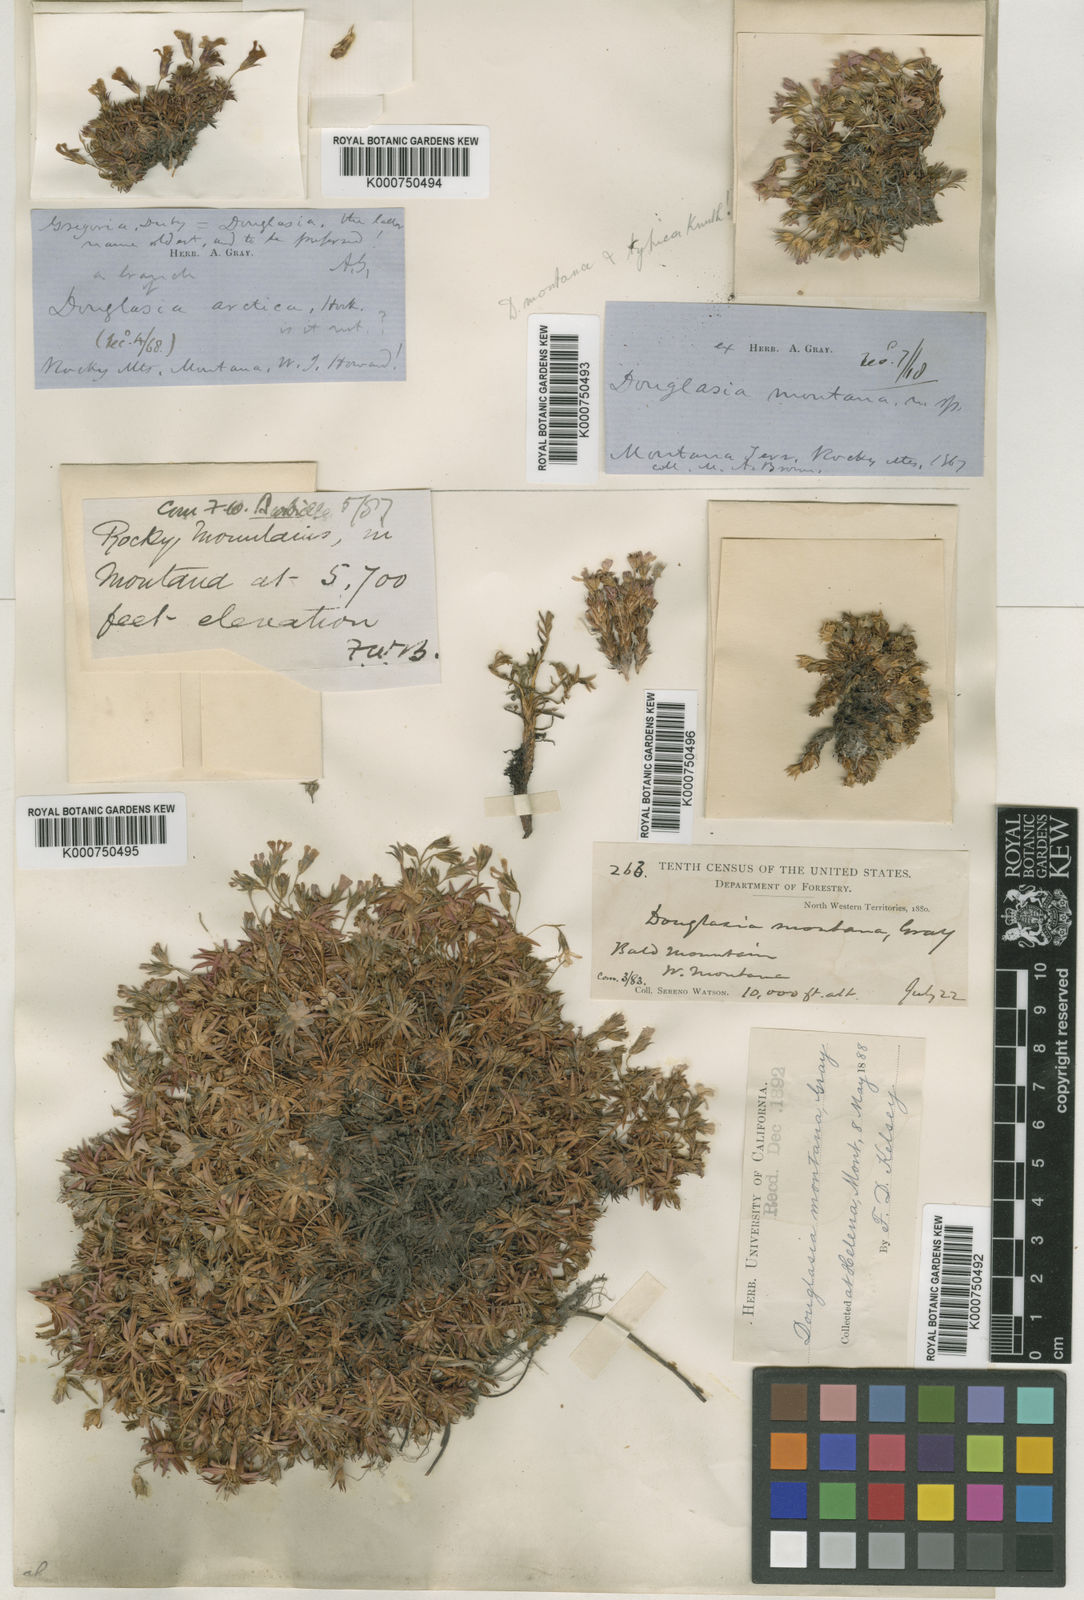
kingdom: Plantae
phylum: Tracheophyta
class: Magnoliopsida
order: Ericales
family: Primulaceae
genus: Androsace
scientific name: Androsace
